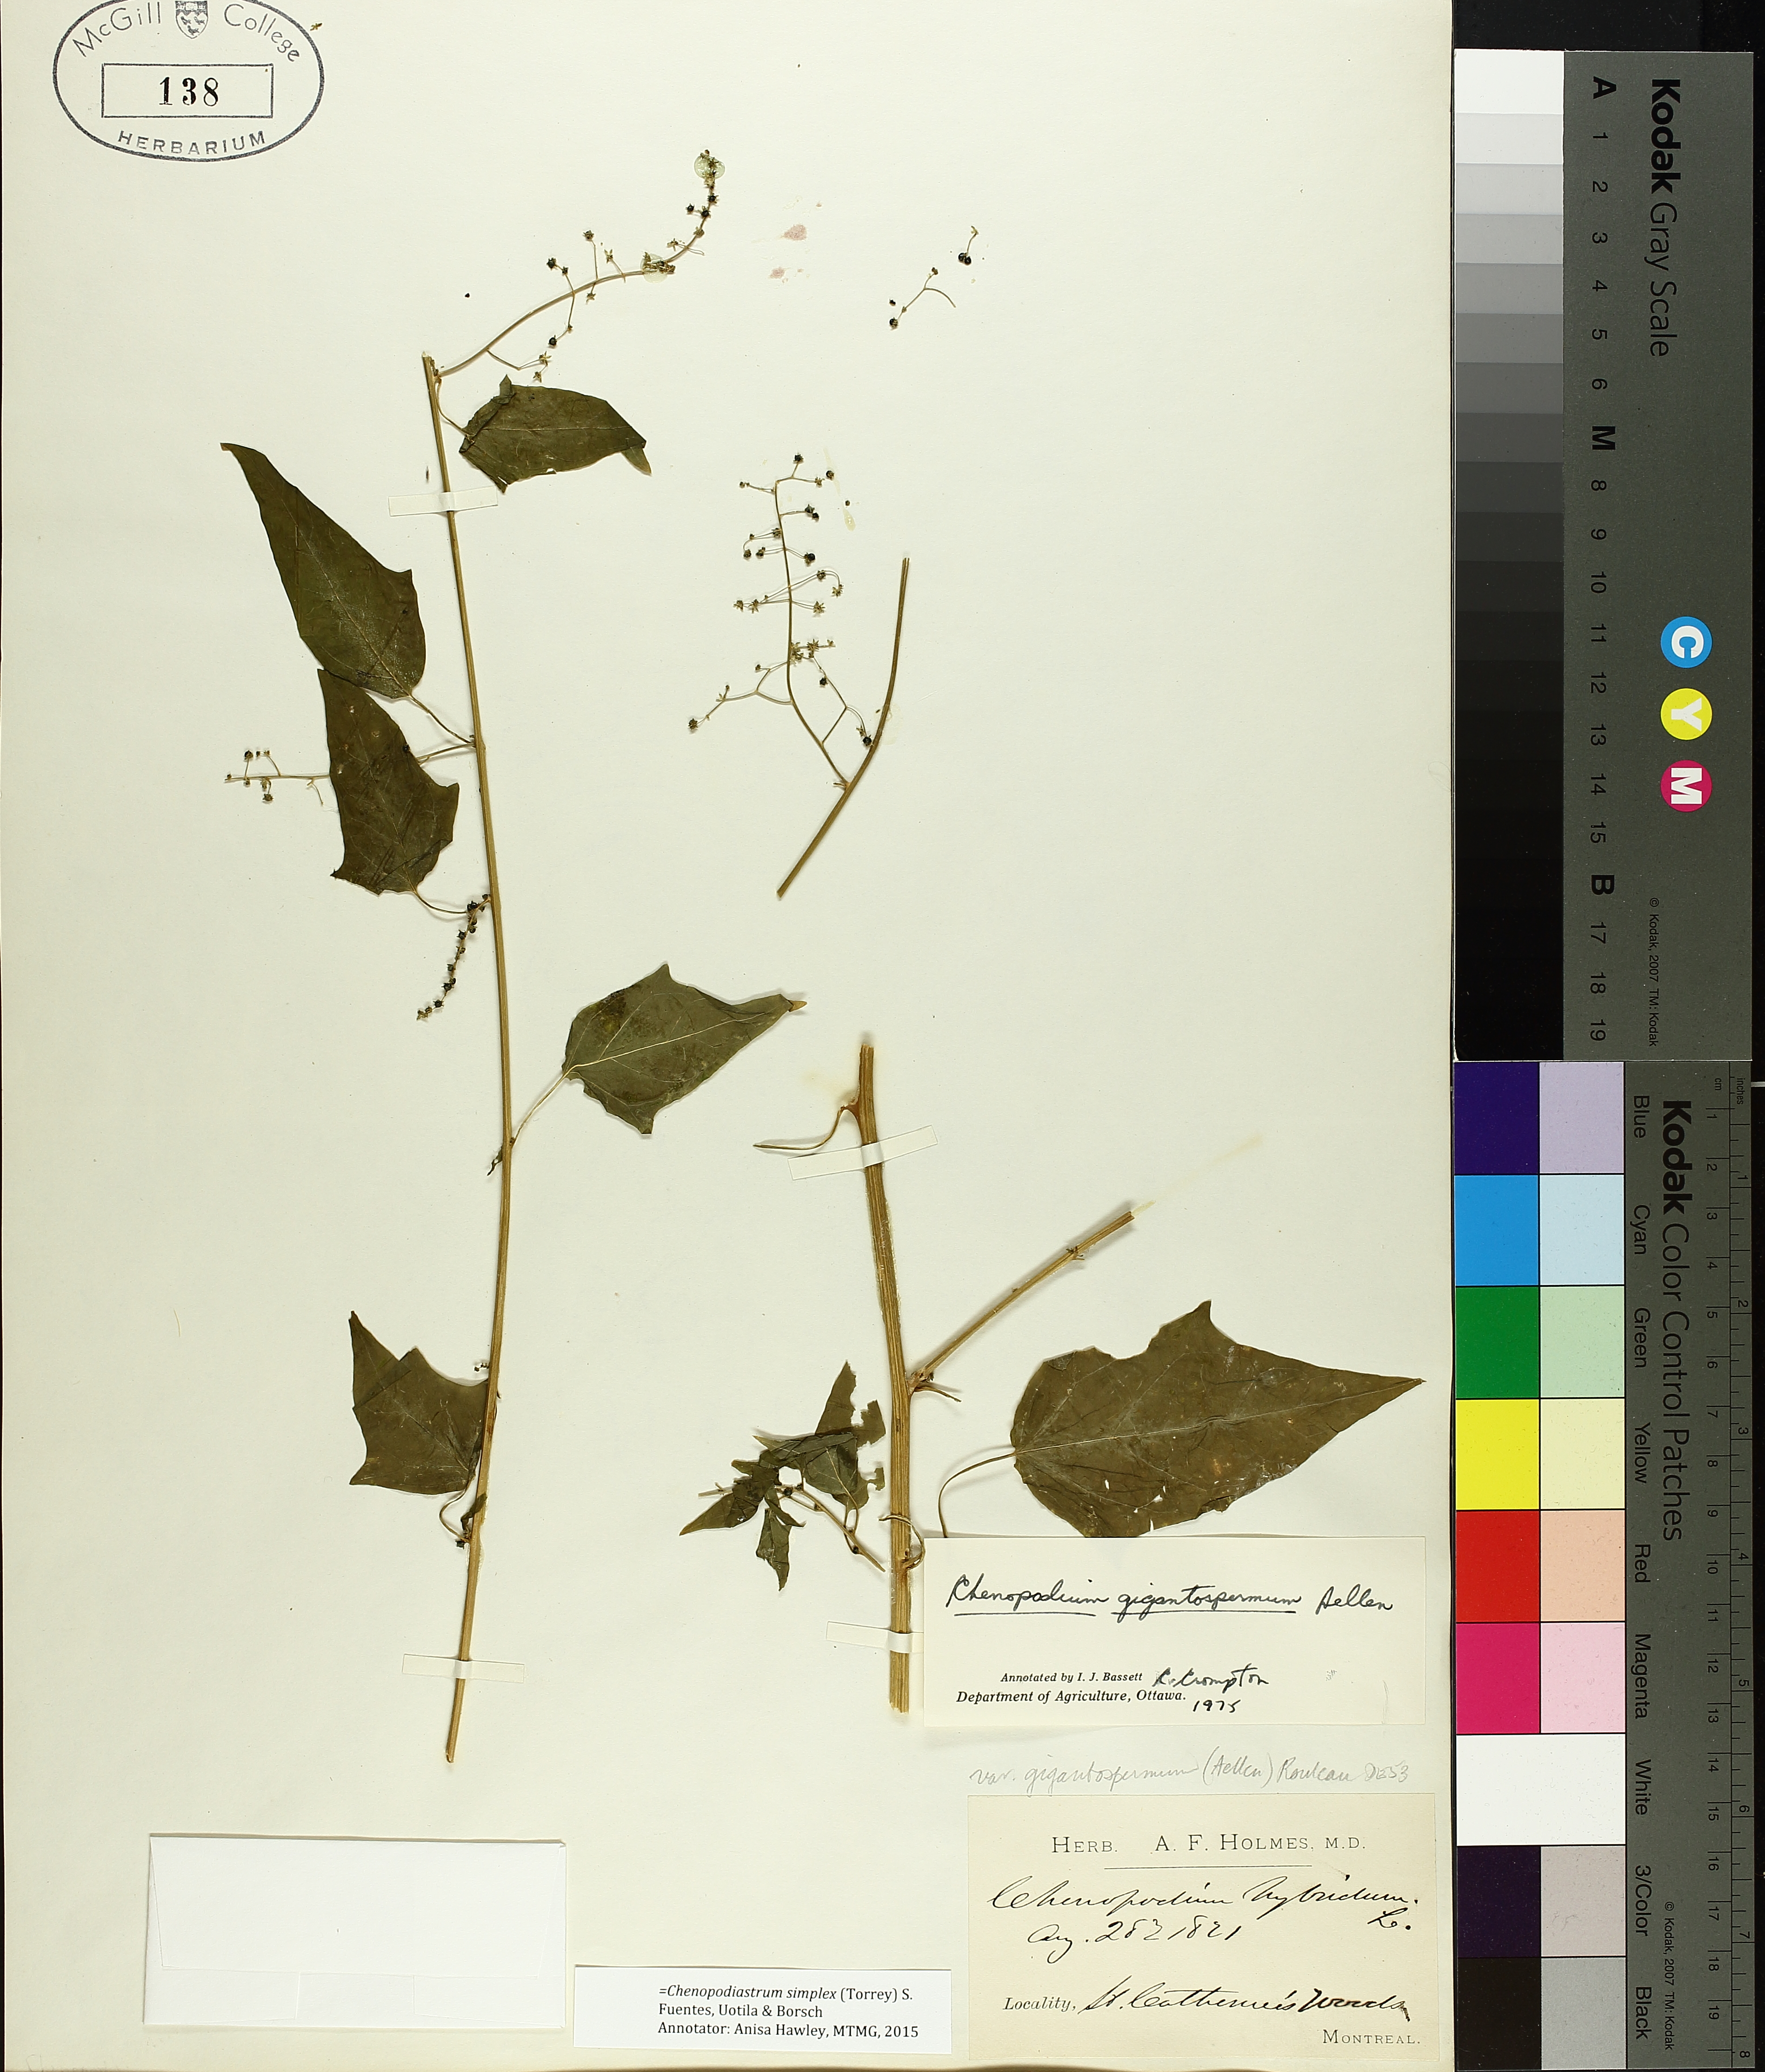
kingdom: Plantae
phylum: Tracheophyta
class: Magnoliopsida
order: Caryophyllales
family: Amaranthaceae
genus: Chenopodiastrum
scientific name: Chenopodiastrum simplex
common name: Large-seed goosefoot
